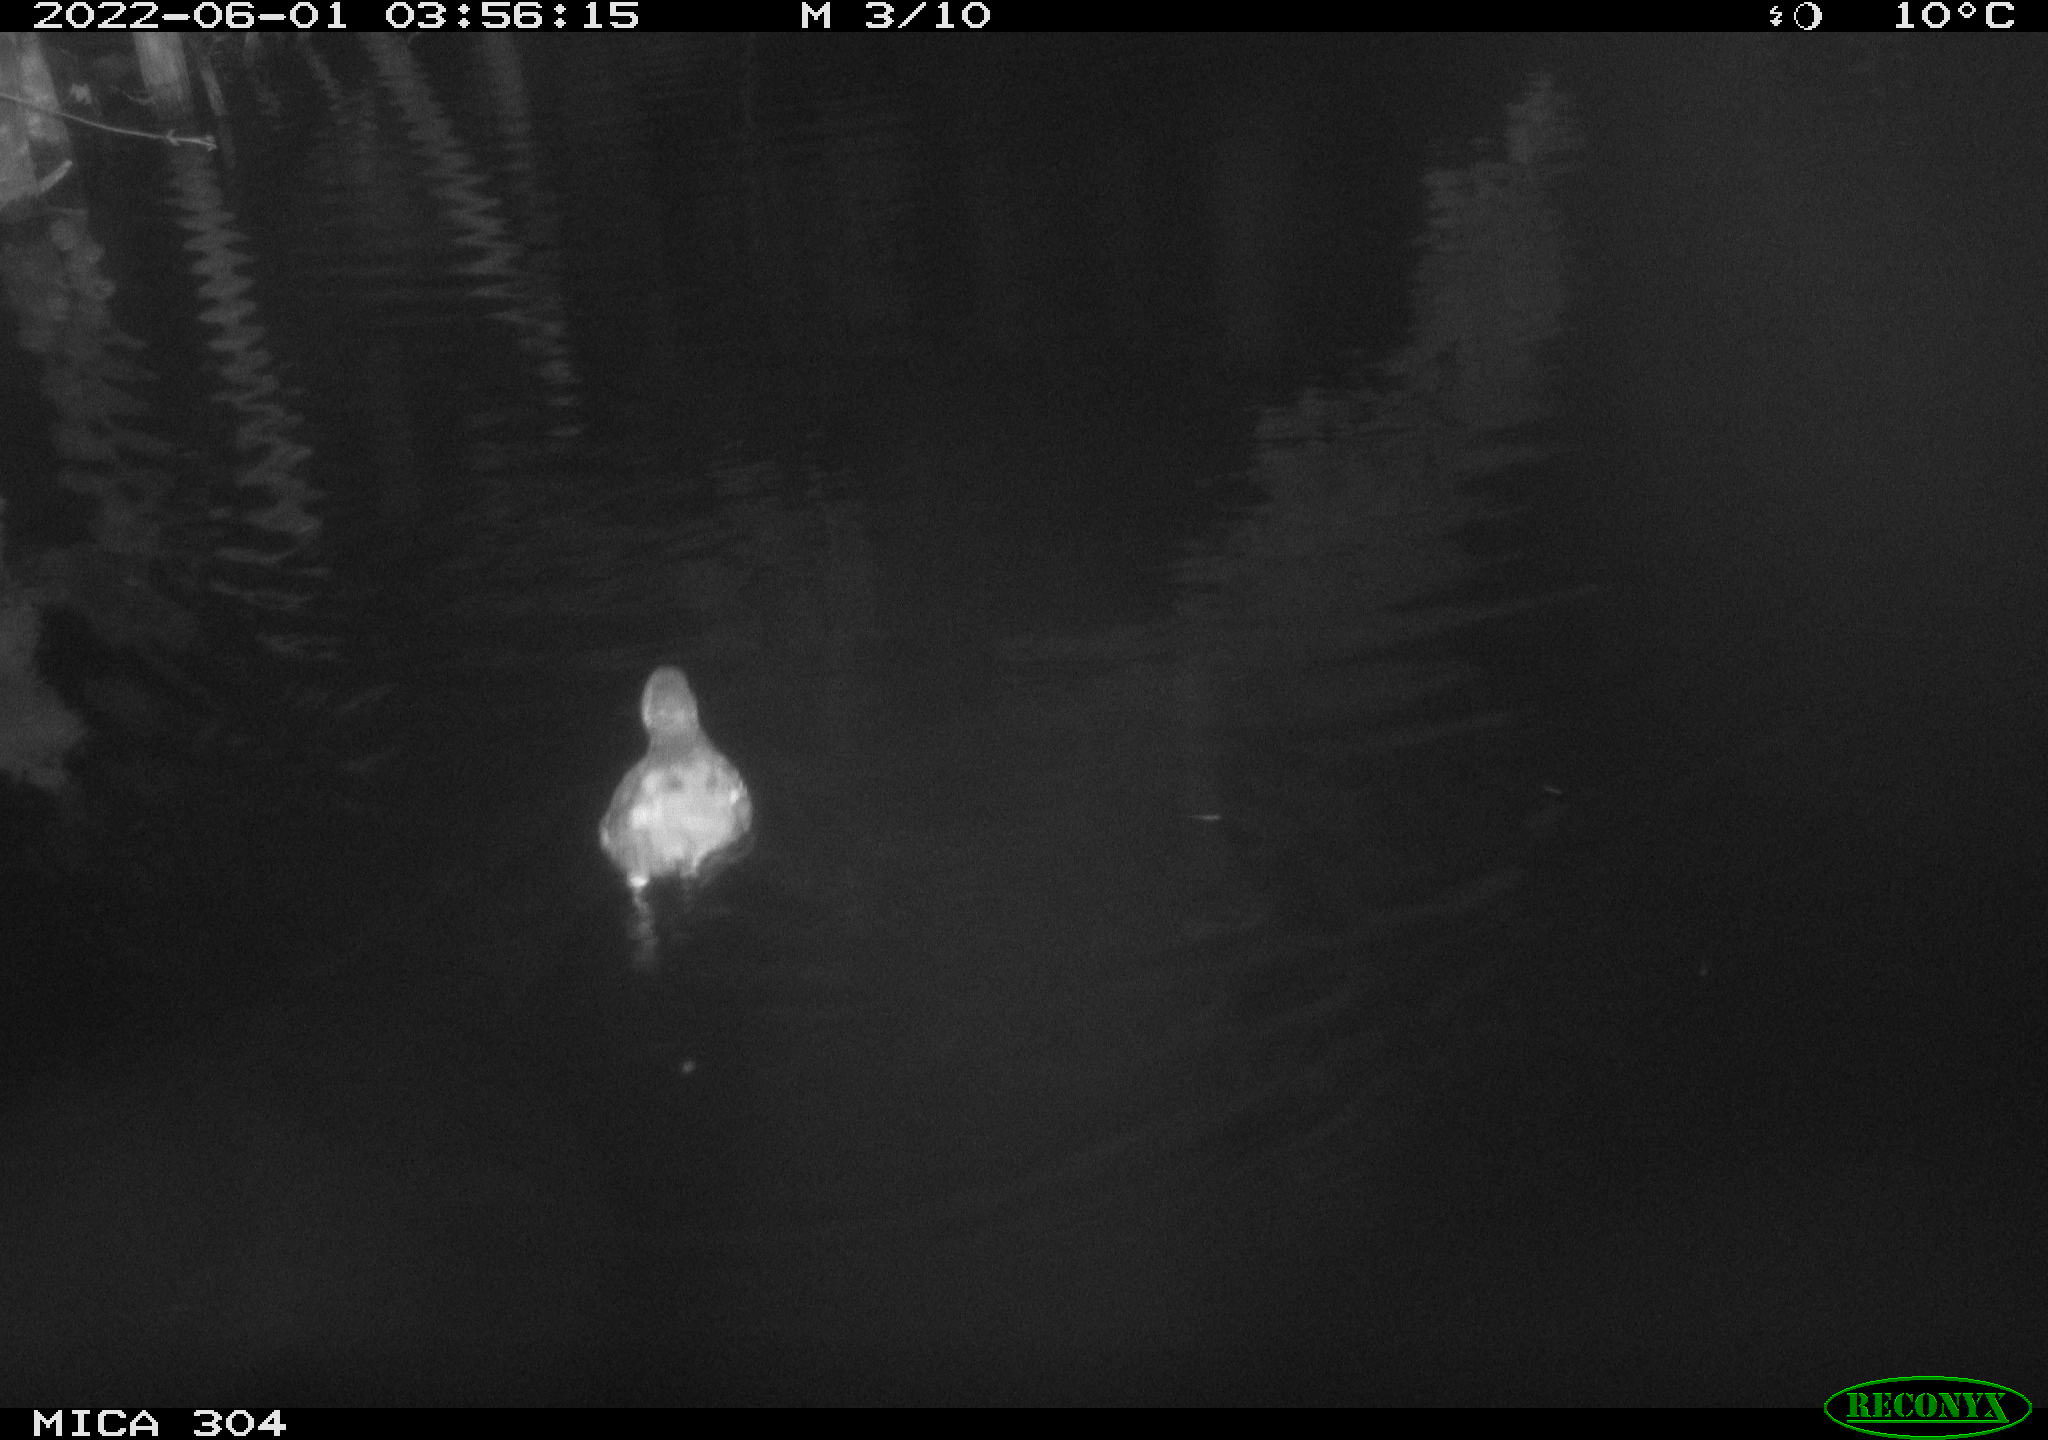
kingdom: Animalia
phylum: Chordata
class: Aves
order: Gruiformes
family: Rallidae
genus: Gallinula
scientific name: Gallinula chloropus
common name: Common moorhen
